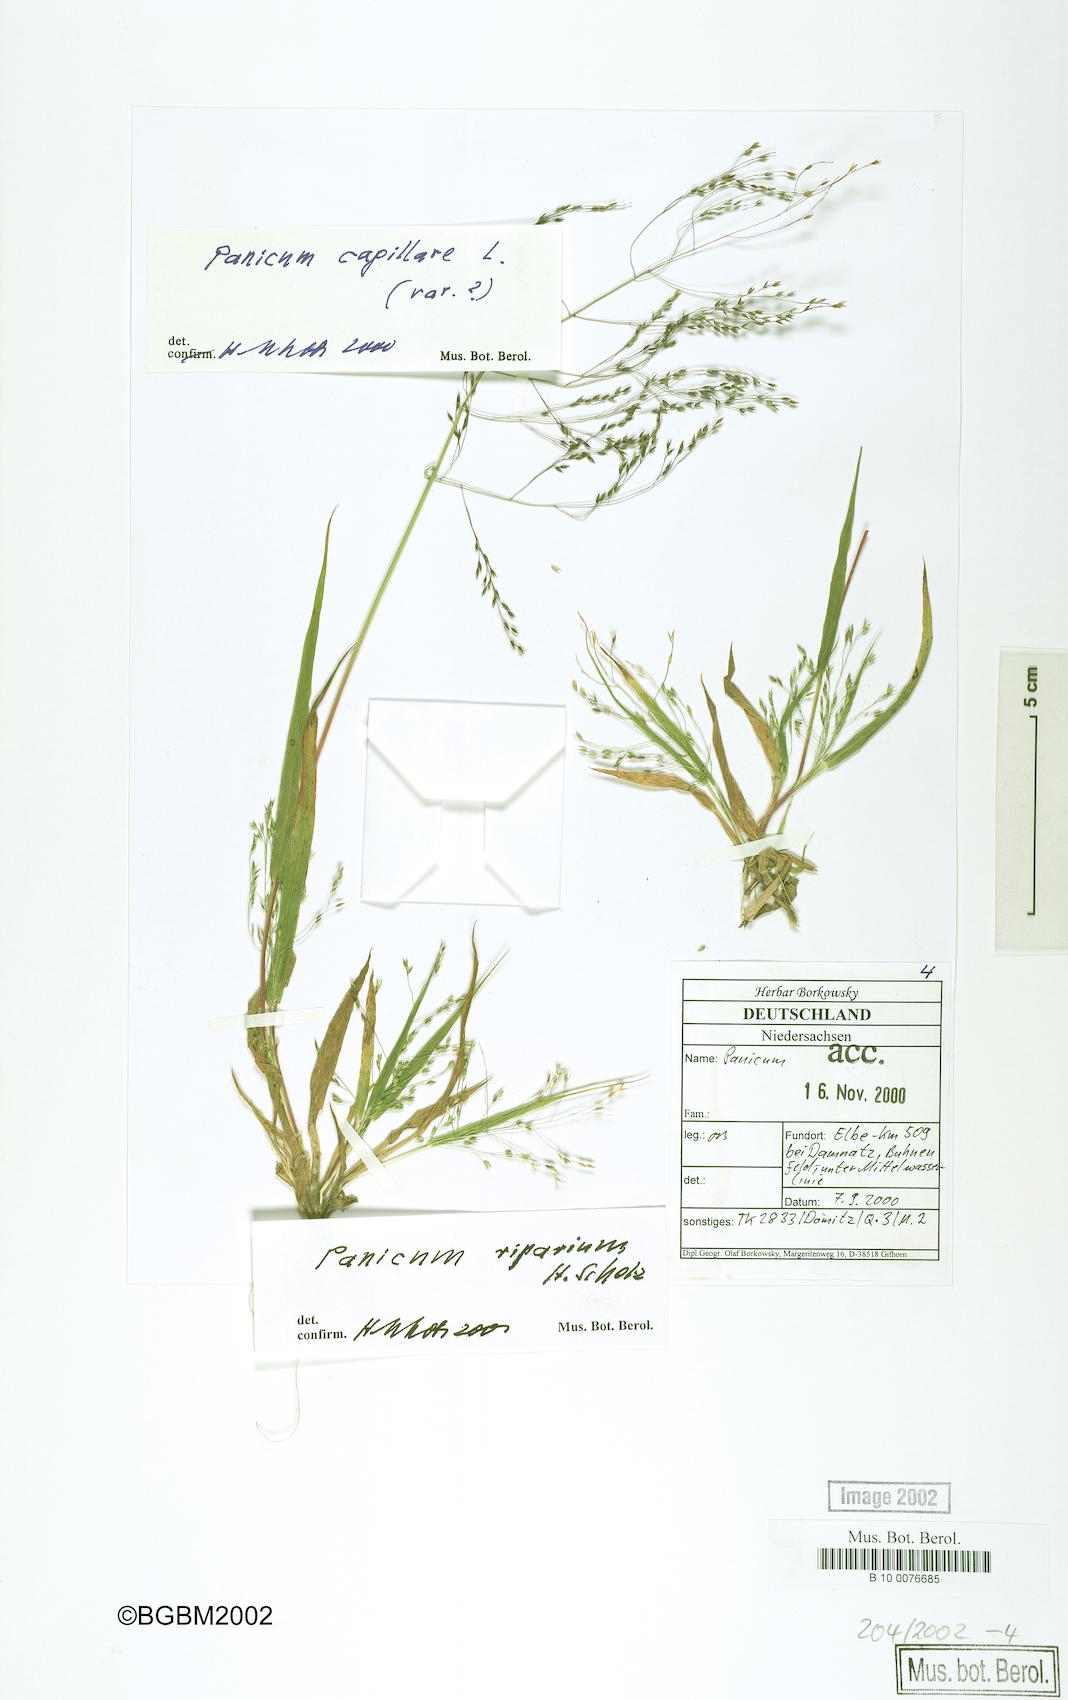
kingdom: Plantae
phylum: Tracheophyta
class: Liliopsida
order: Poales
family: Poaceae
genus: Panicum
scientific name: Panicum capillare
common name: Witch-grass
